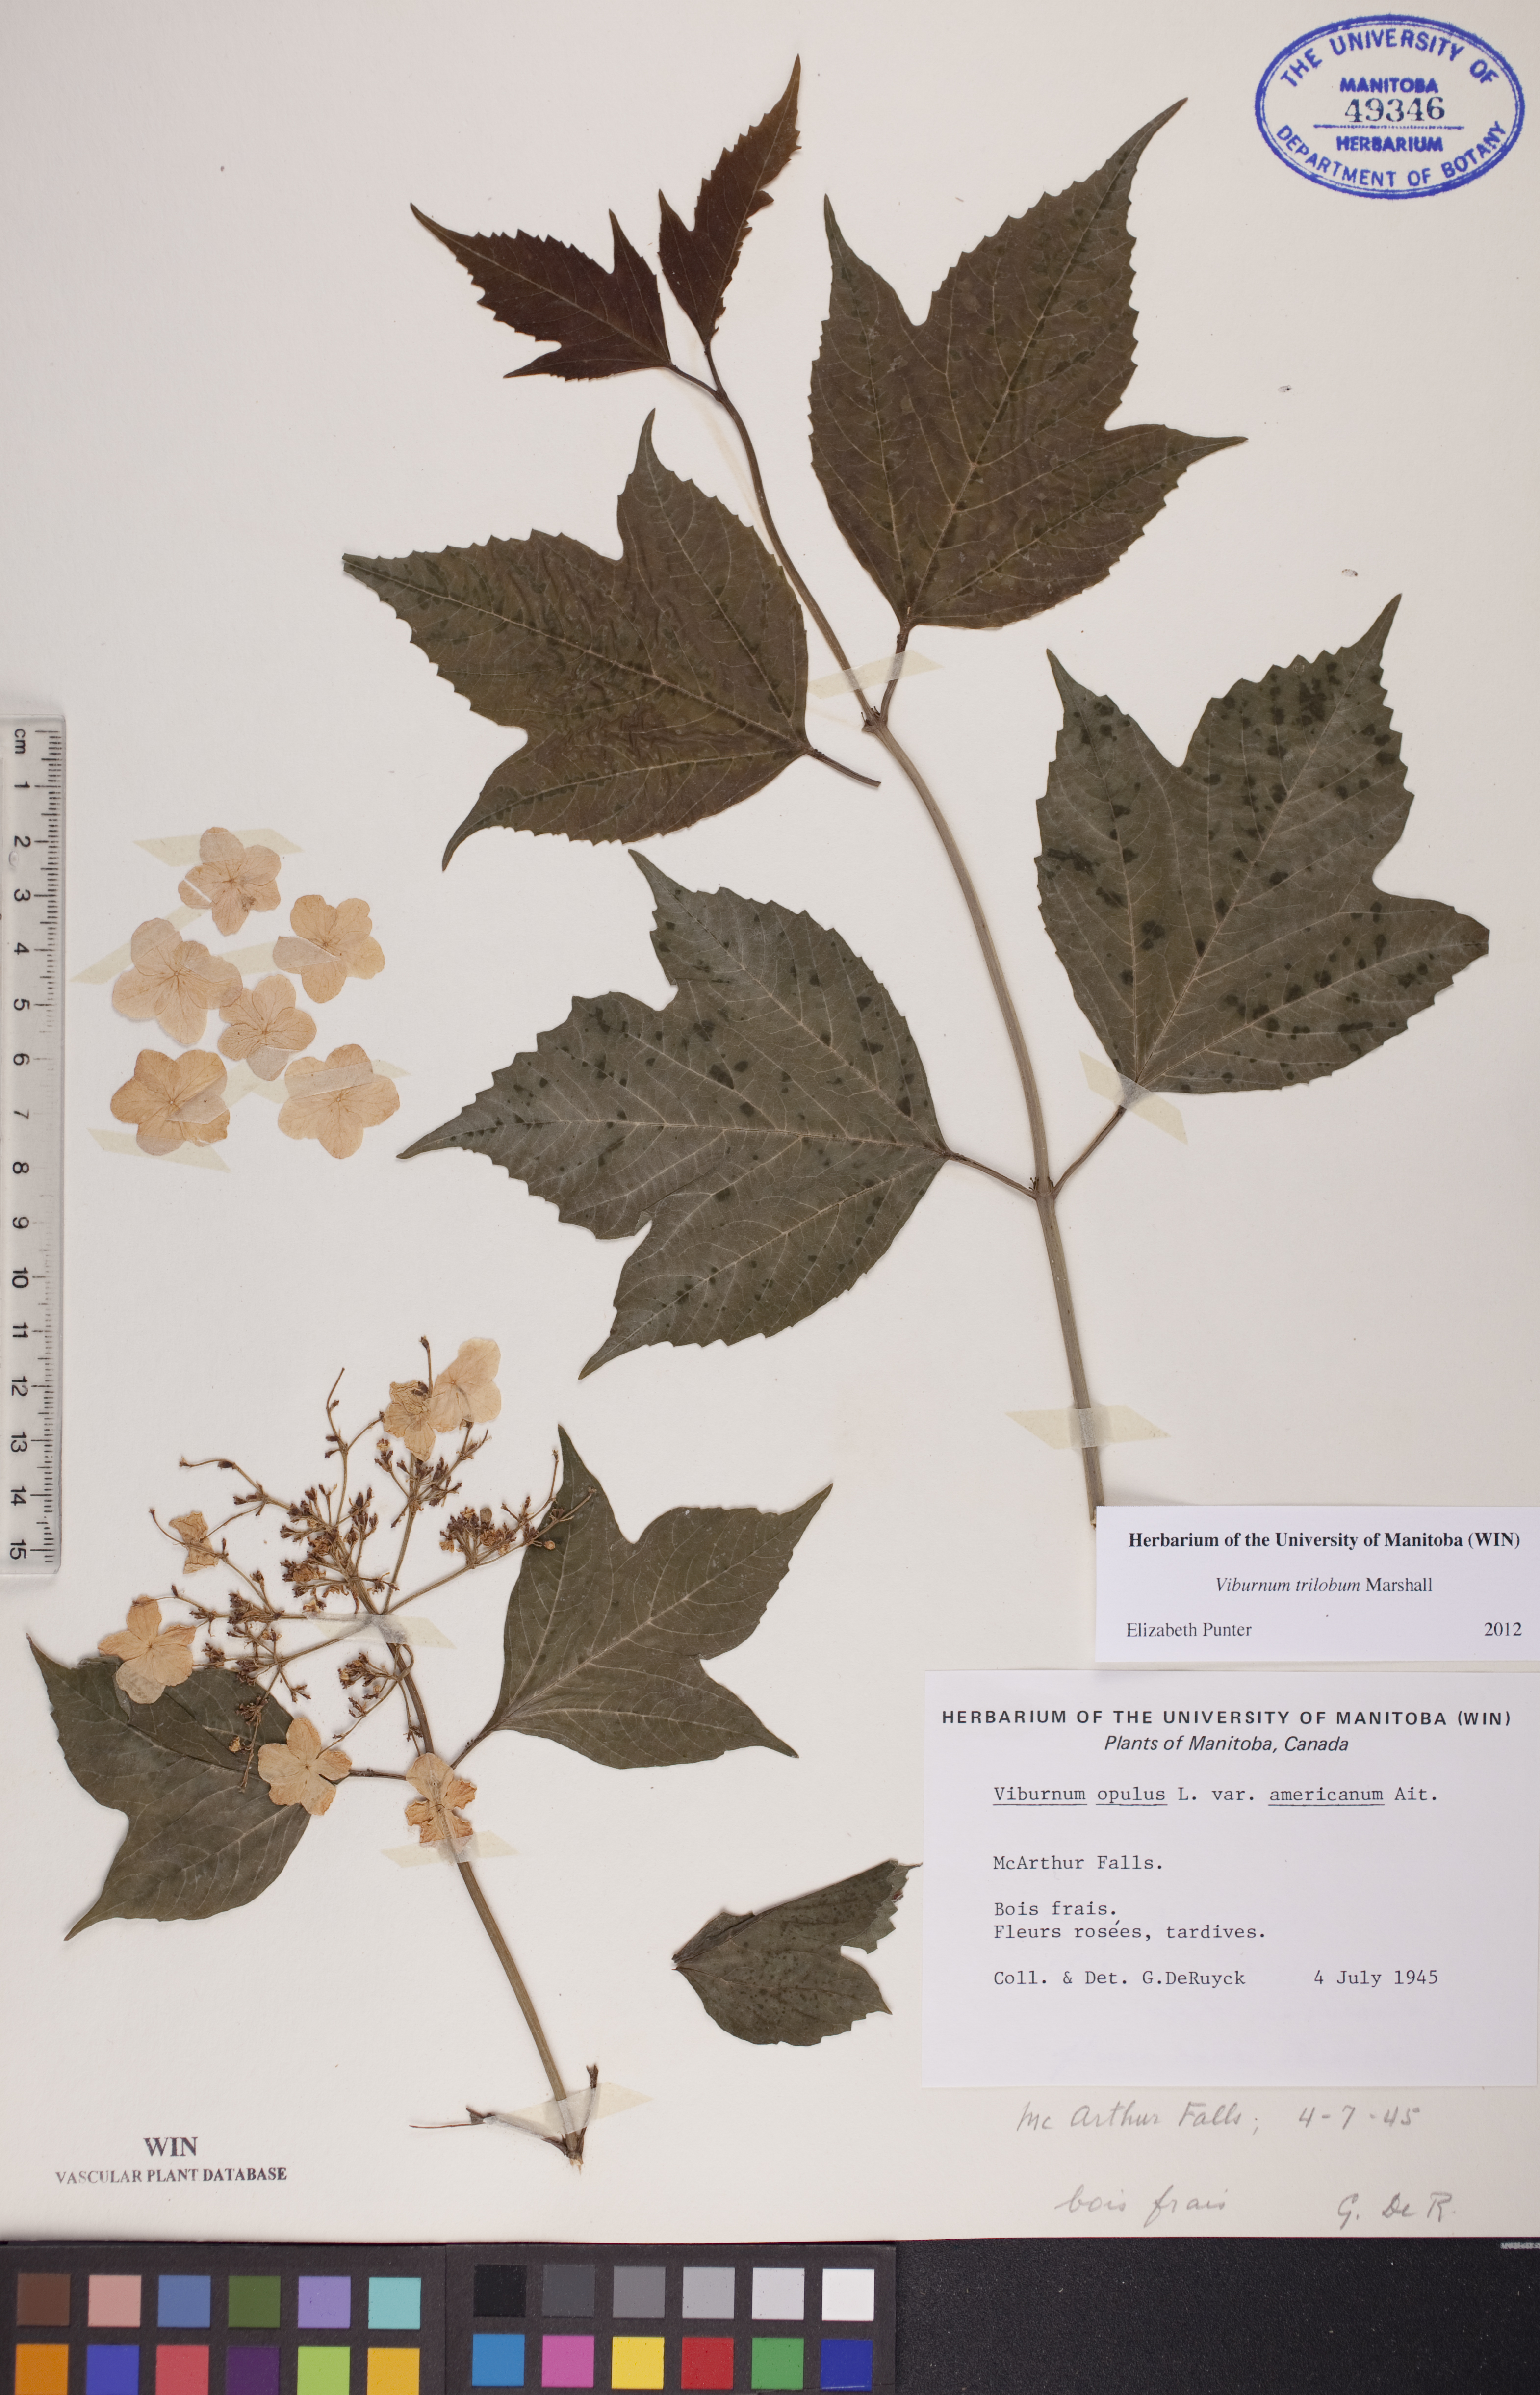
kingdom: Plantae
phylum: Tracheophyta
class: Magnoliopsida
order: Dipsacales
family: Viburnaceae
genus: Viburnum
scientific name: Viburnum trilobum
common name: American cranberrybush
